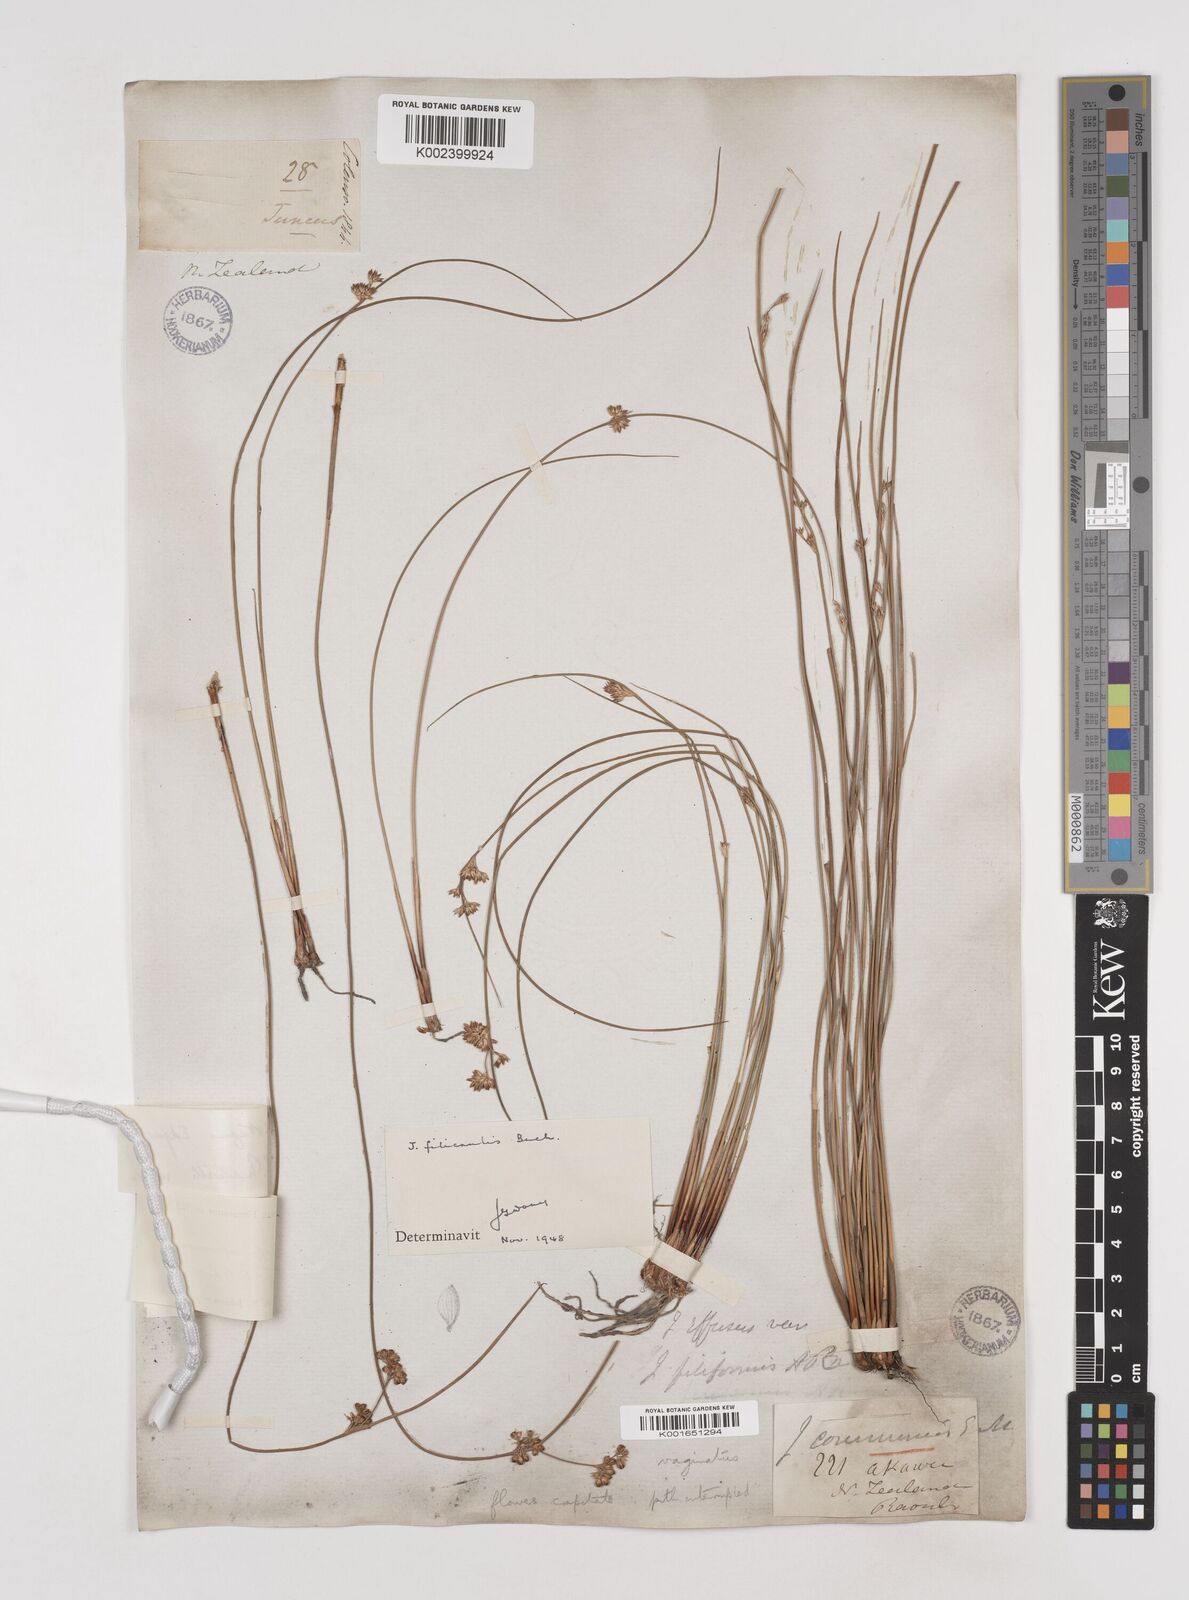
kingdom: Plantae
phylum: Tracheophyta
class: Liliopsida
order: Poales
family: Juncaceae
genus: Juncus
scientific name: Juncus distegus
